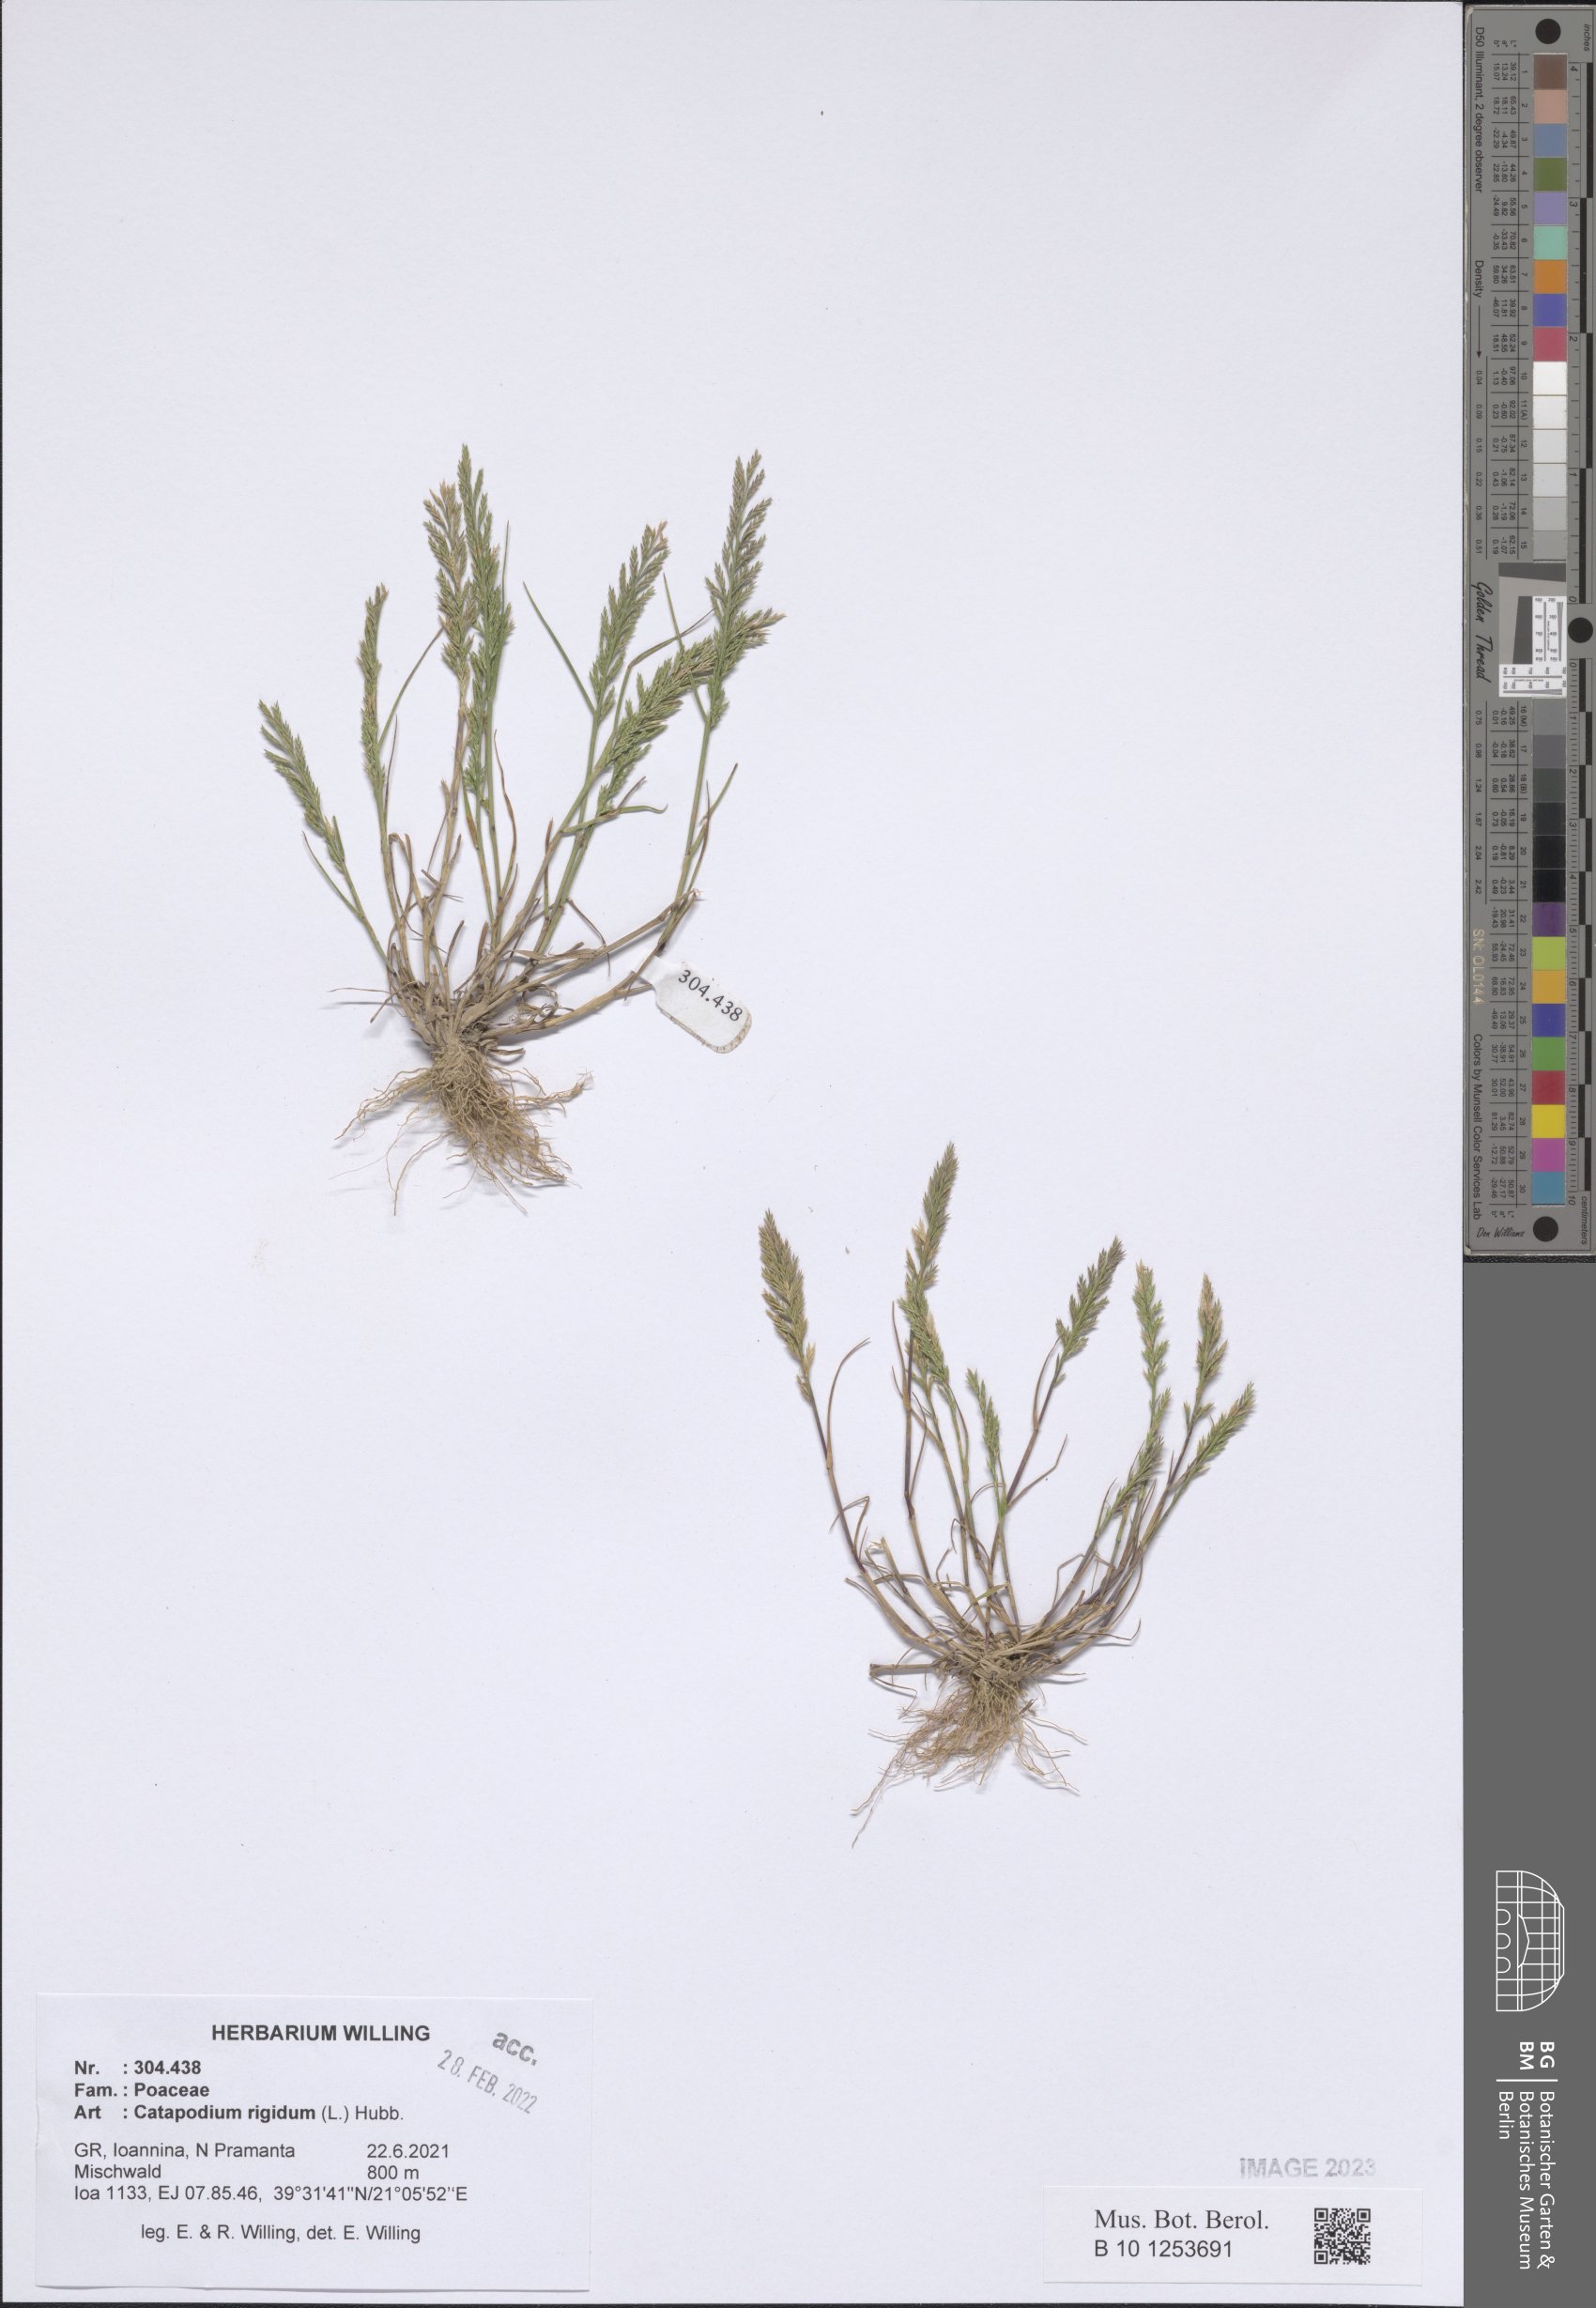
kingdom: Plantae
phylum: Tracheophyta
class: Liliopsida
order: Poales
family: Poaceae
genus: Catapodium
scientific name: Catapodium rigidum
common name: Fern-grass
